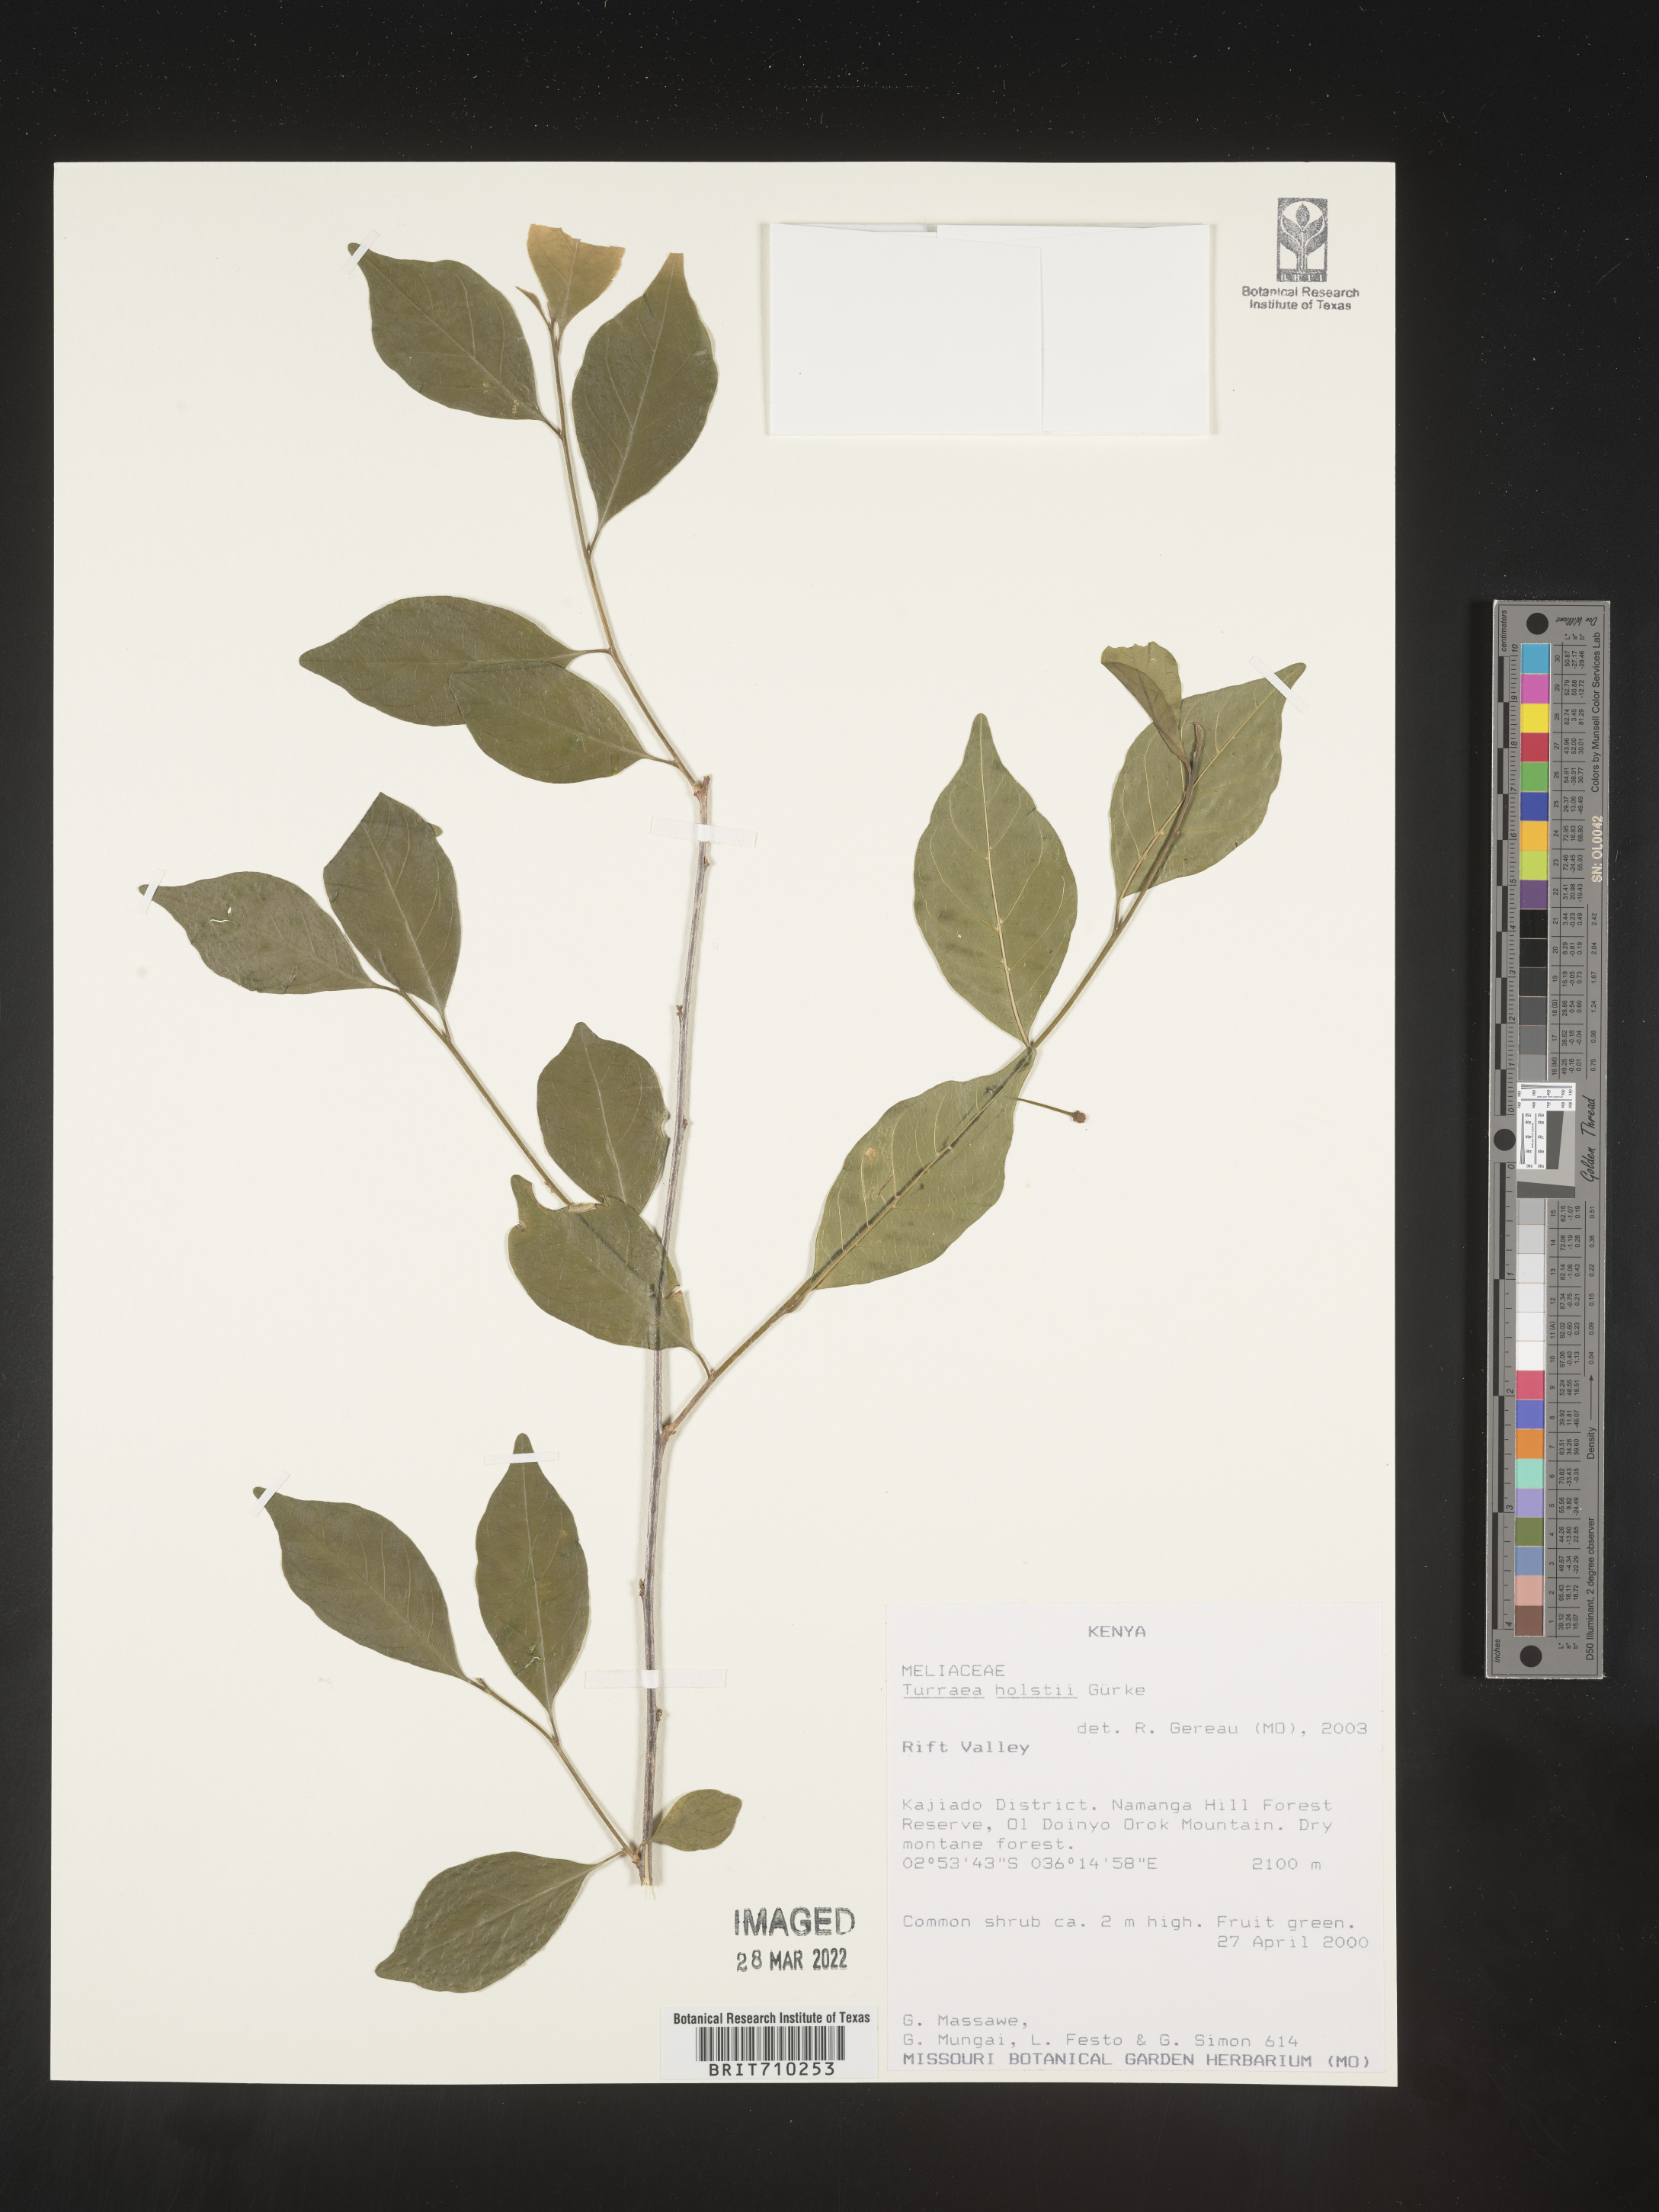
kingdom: Plantae
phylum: Tracheophyta
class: Magnoliopsida
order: Sapindales
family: Meliaceae
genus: Turraea
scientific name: Turraea
